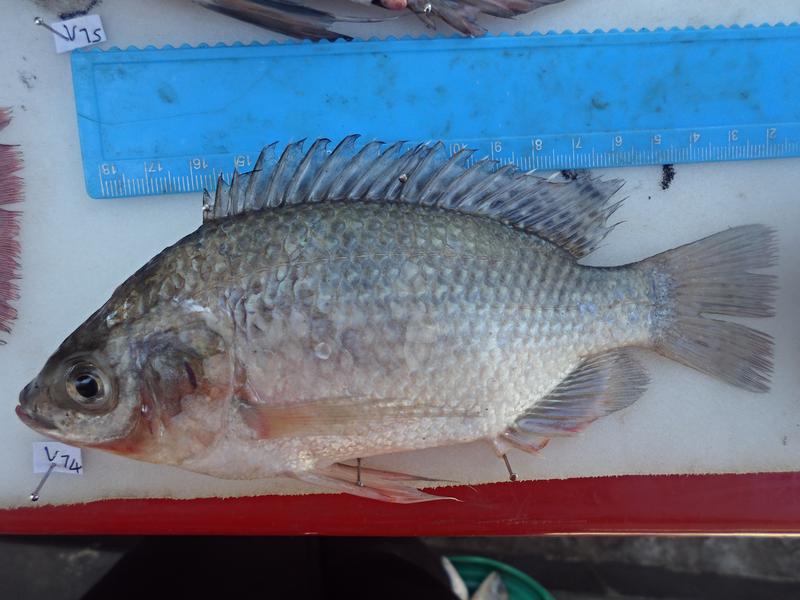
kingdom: Animalia
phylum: Chordata
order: Perciformes
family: Cichlidae
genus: Oreochromis
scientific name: Oreochromis esculentus
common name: Carp
